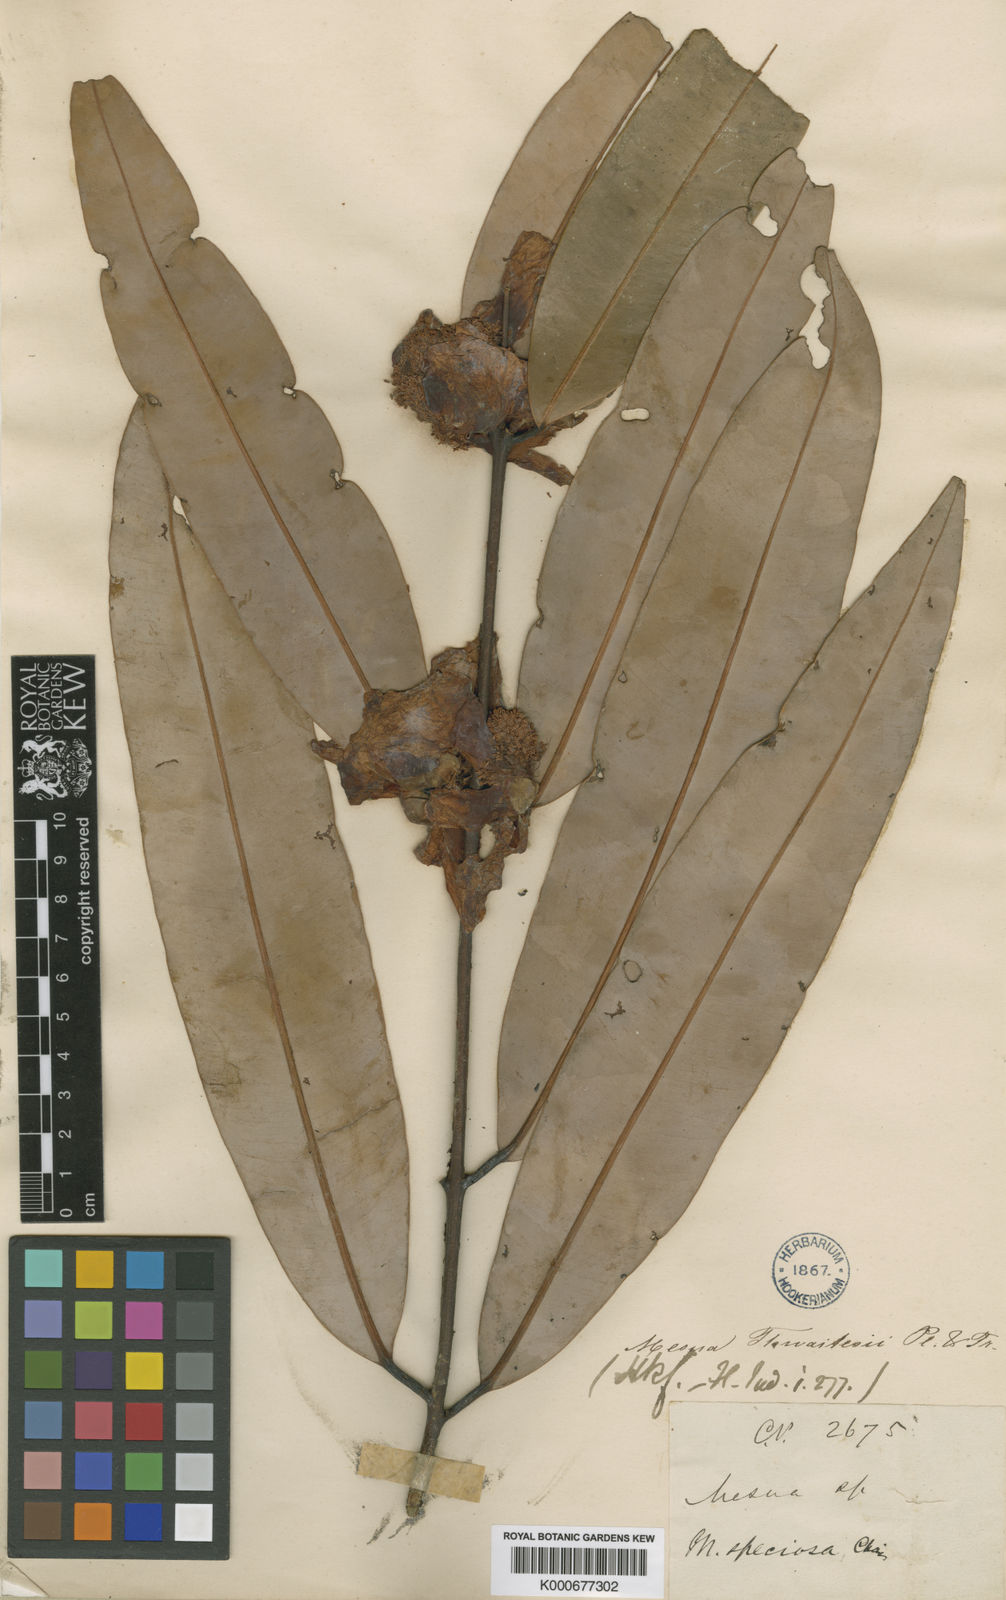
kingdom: Plantae
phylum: Tracheophyta
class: Magnoliopsida
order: Malpighiales
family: Calophyllaceae
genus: Mesua
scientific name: Mesua thwaitesii
